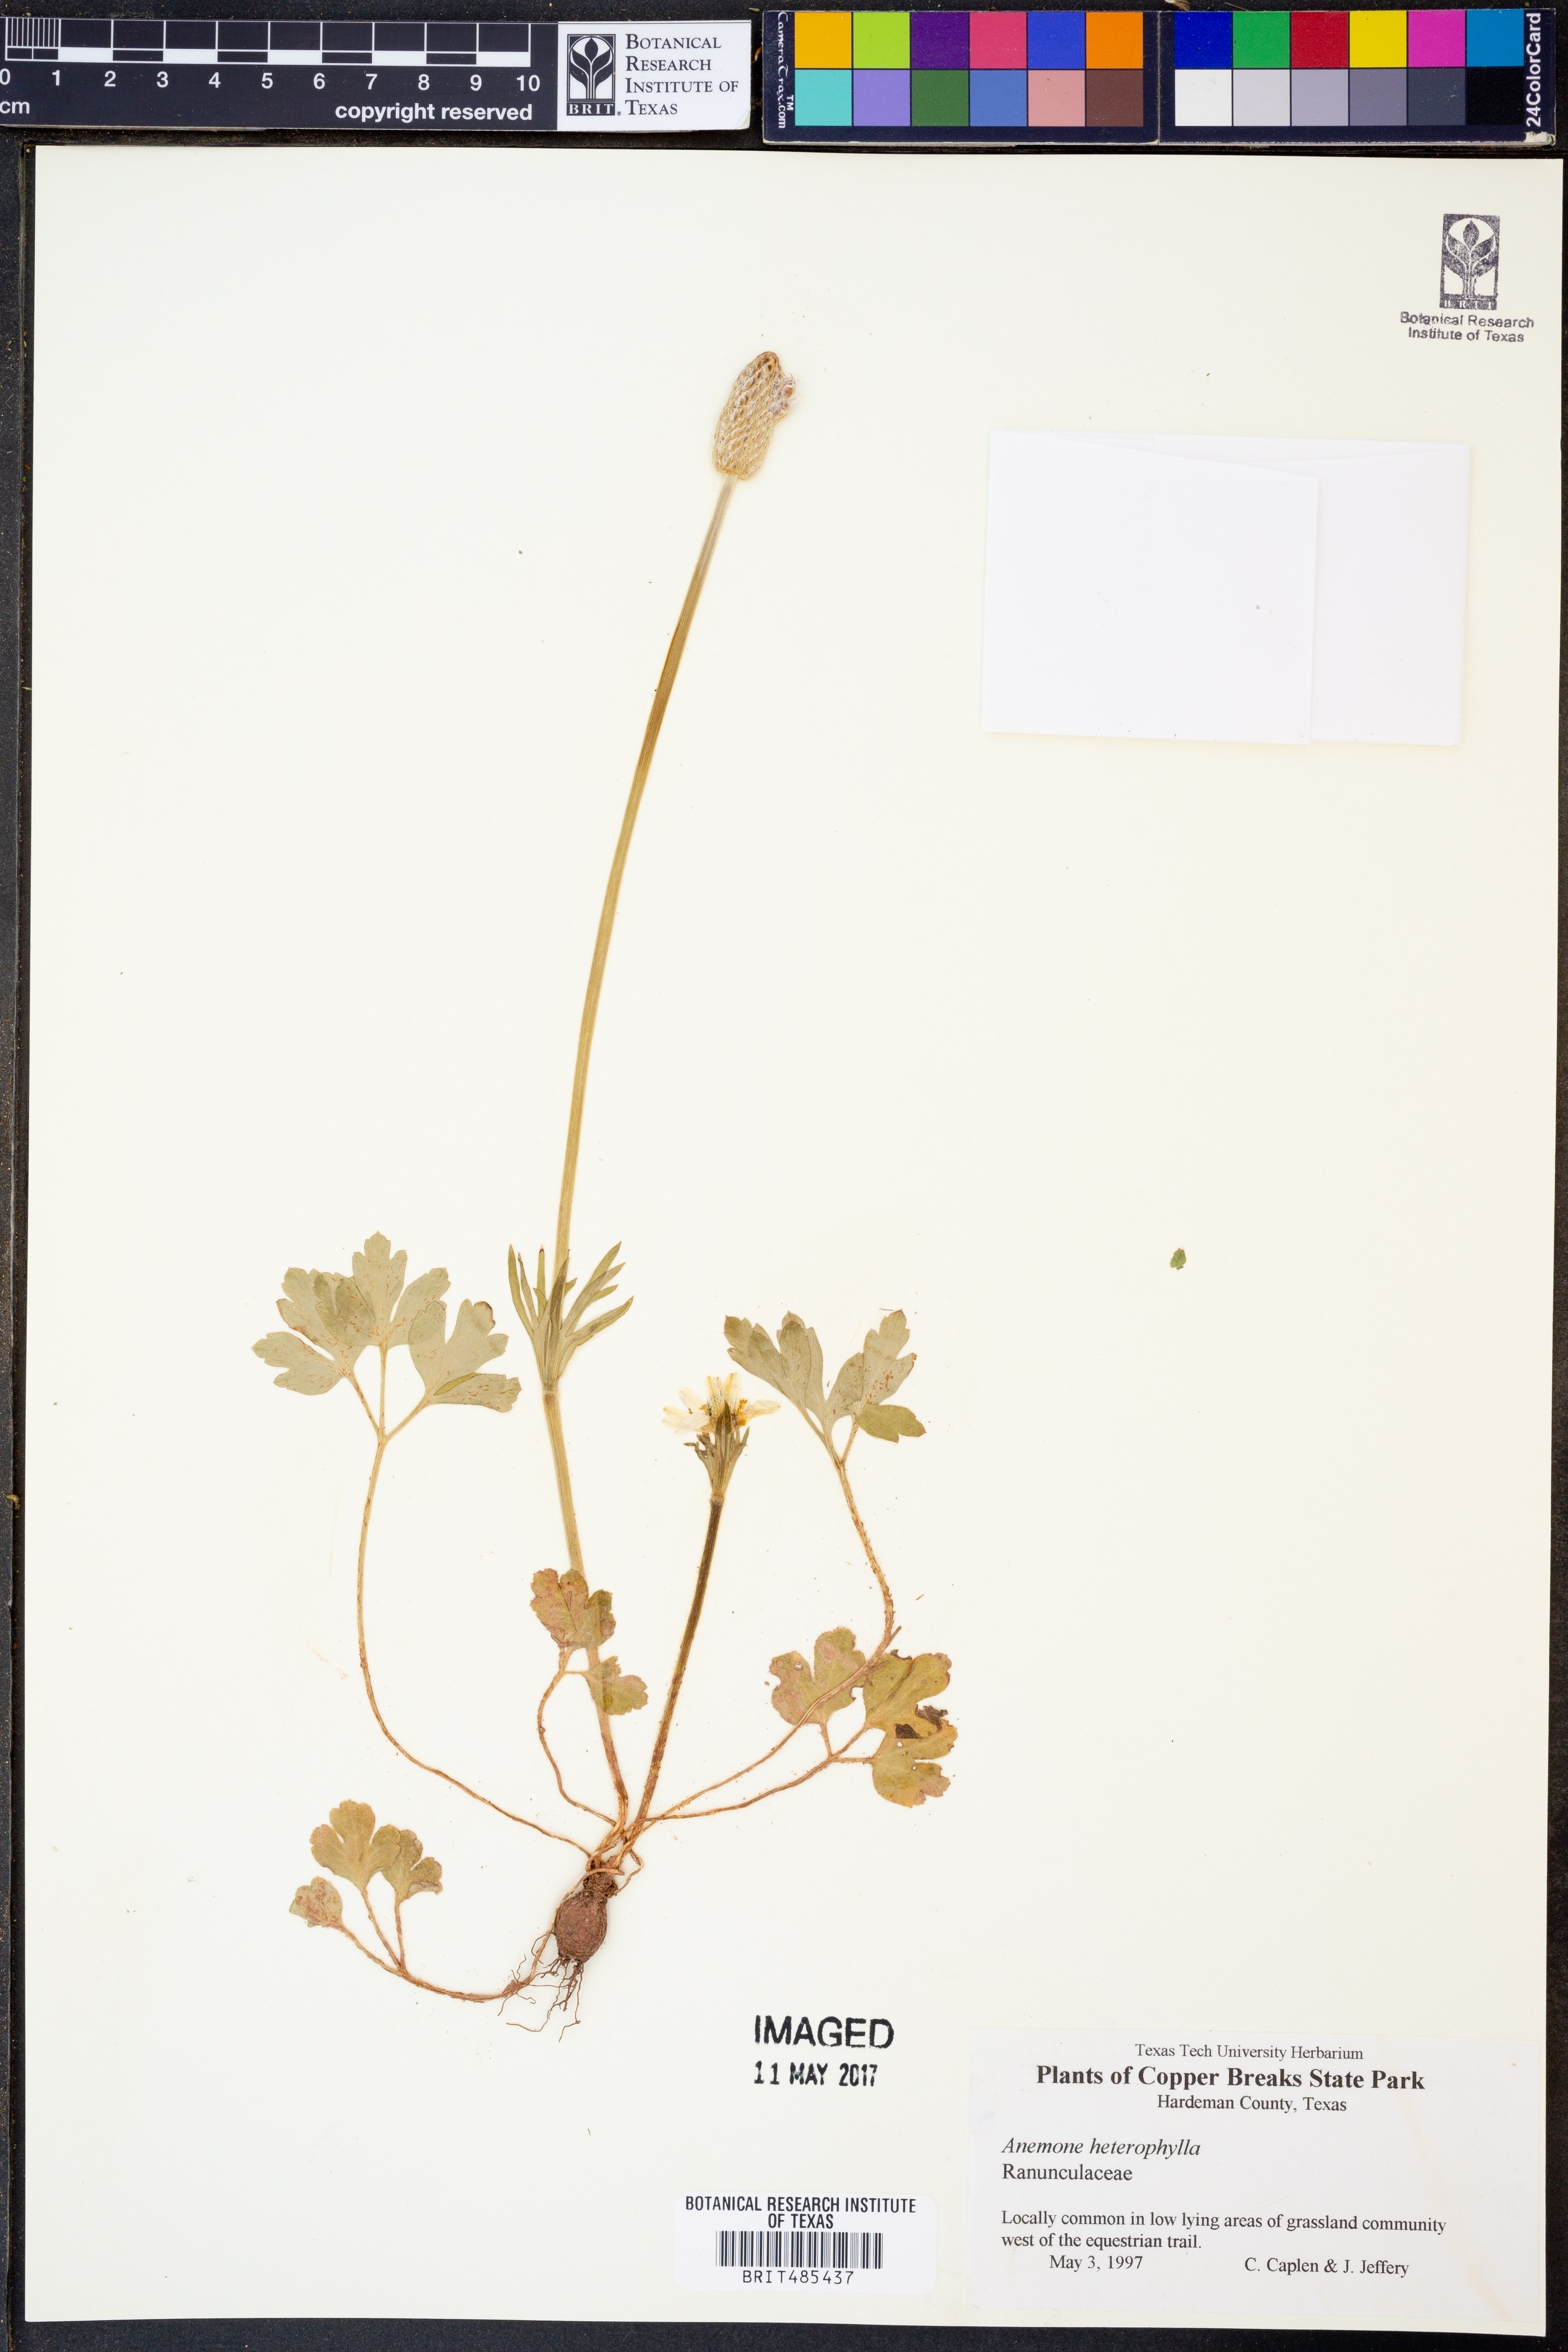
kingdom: Plantae
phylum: Tracheophyta
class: Magnoliopsida
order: Ranunculales
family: Ranunculaceae
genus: Anemone
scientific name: Anemone heterophylla
